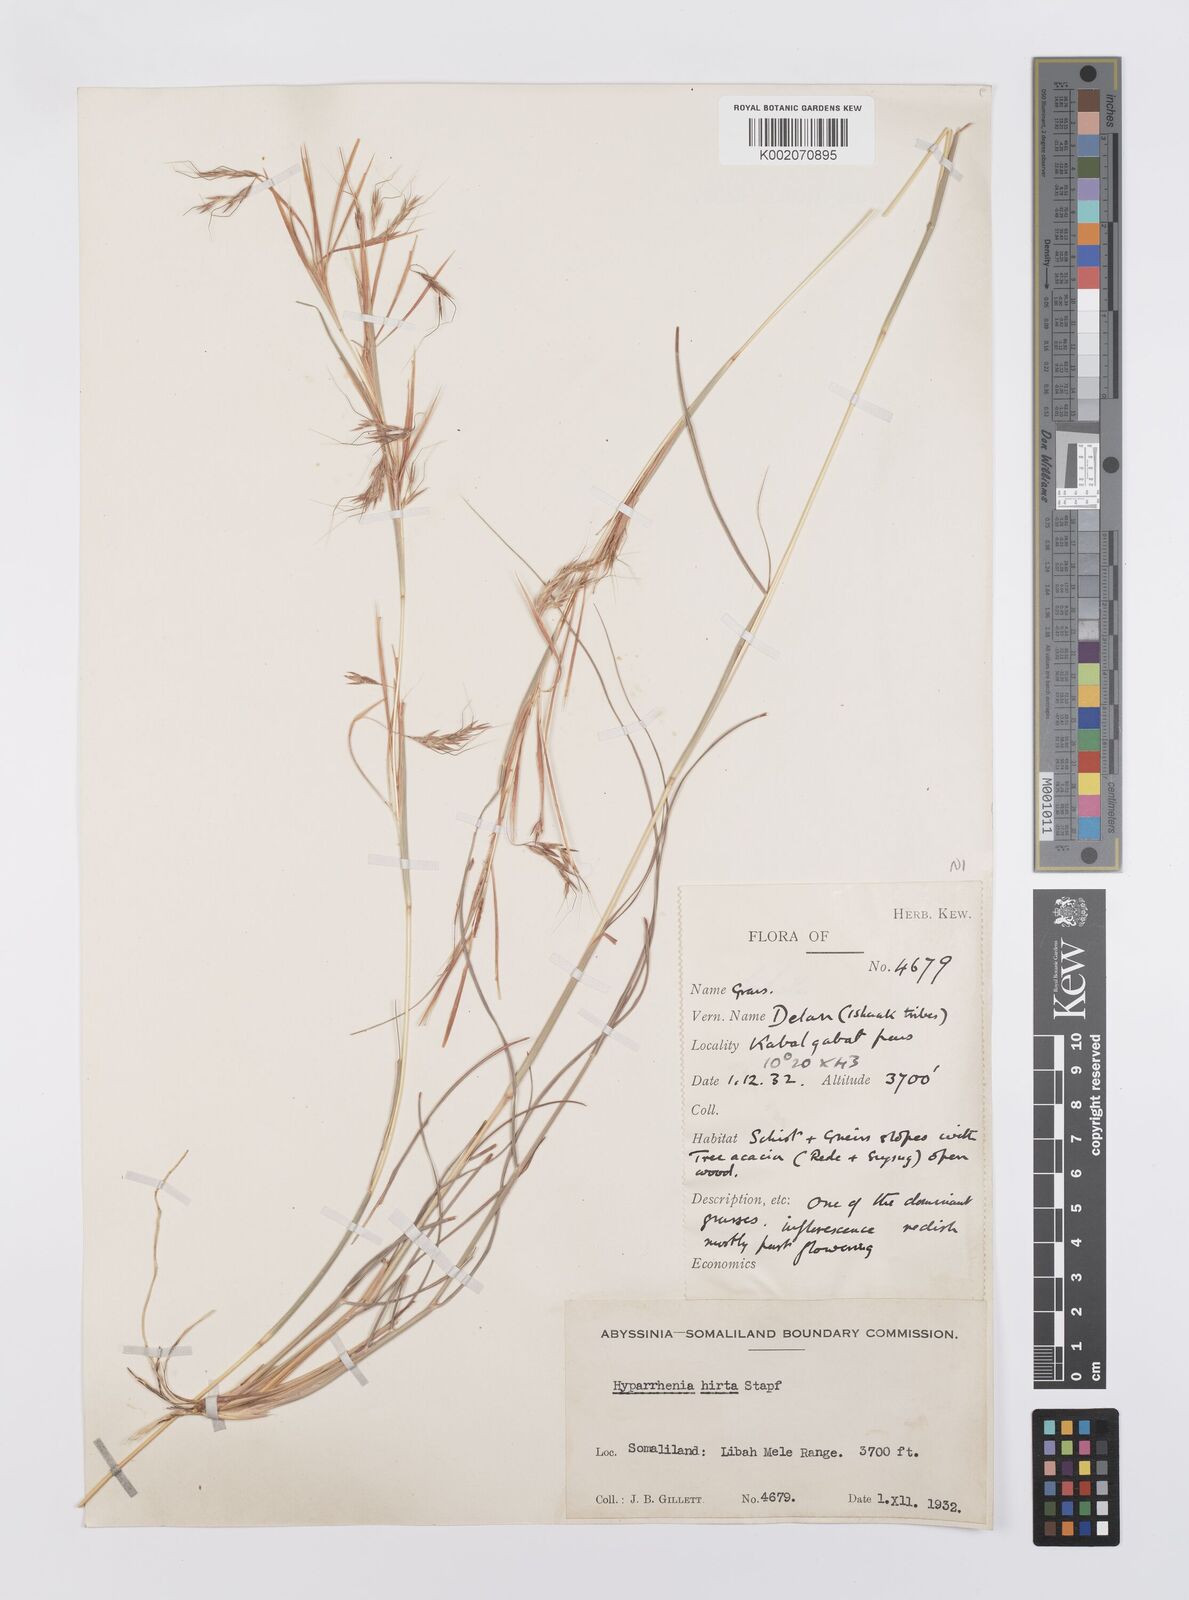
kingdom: Plantae
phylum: Tracheophyta
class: Liliopsida
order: Poales
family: Poaceae
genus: Hyparrhenia
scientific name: Hyparrhenia hirta
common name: Thatching grass
